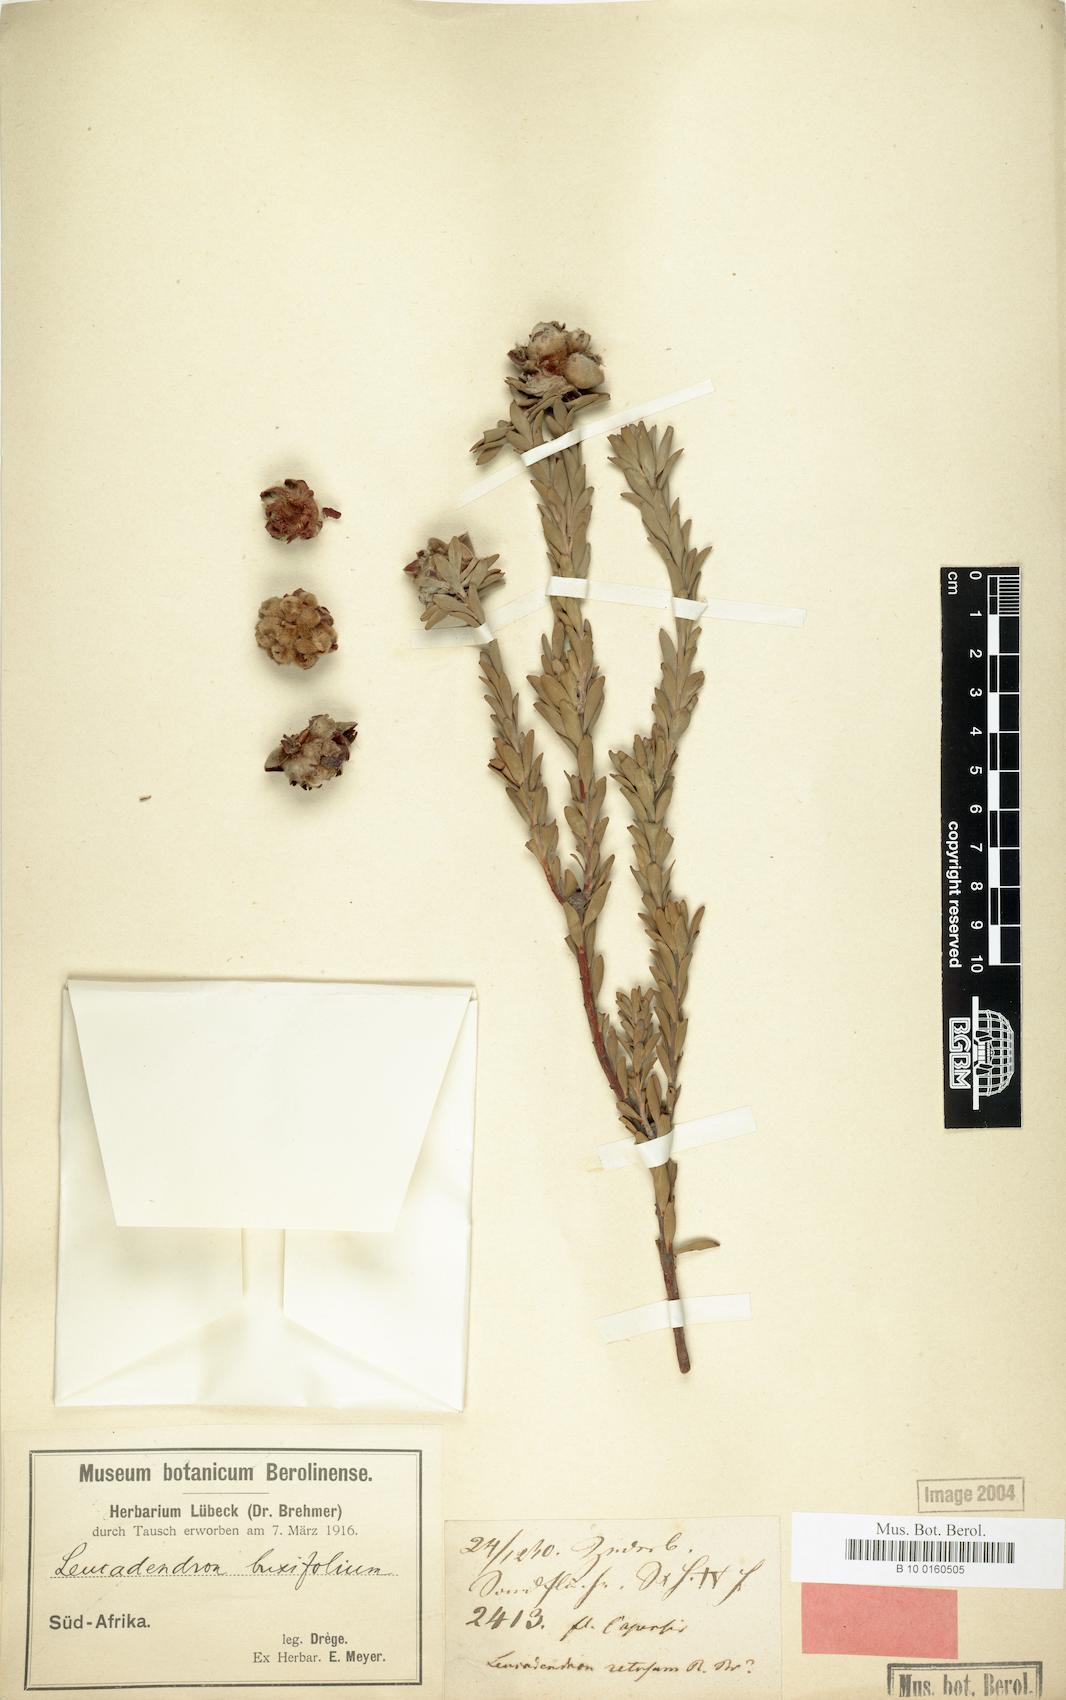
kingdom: Plantae
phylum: Tracheophyta
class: Magnoliopsida
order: Proteales
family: Proteaceae
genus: Leucadendron
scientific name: Leucadendron dubium
